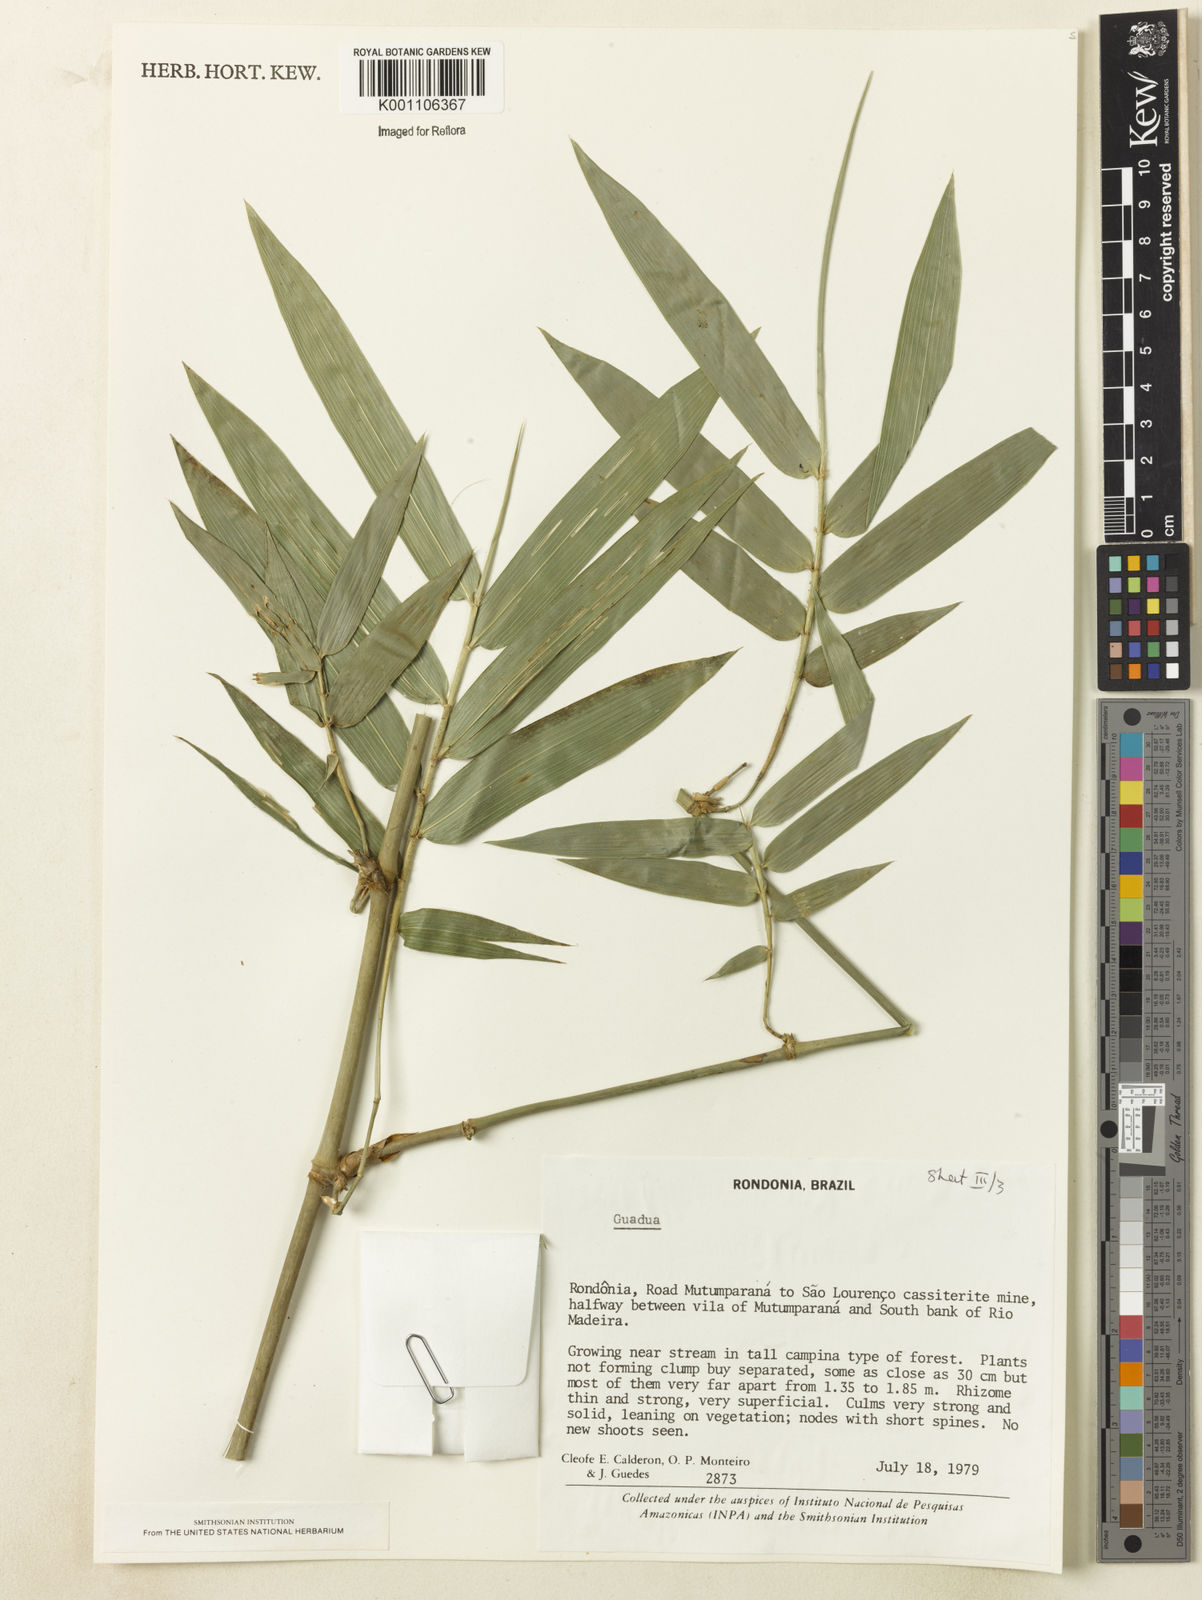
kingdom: Plantae
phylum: Tracheophyta
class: Liliopsida
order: Poales
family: Poaceae
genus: Guadua
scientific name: Guadua
